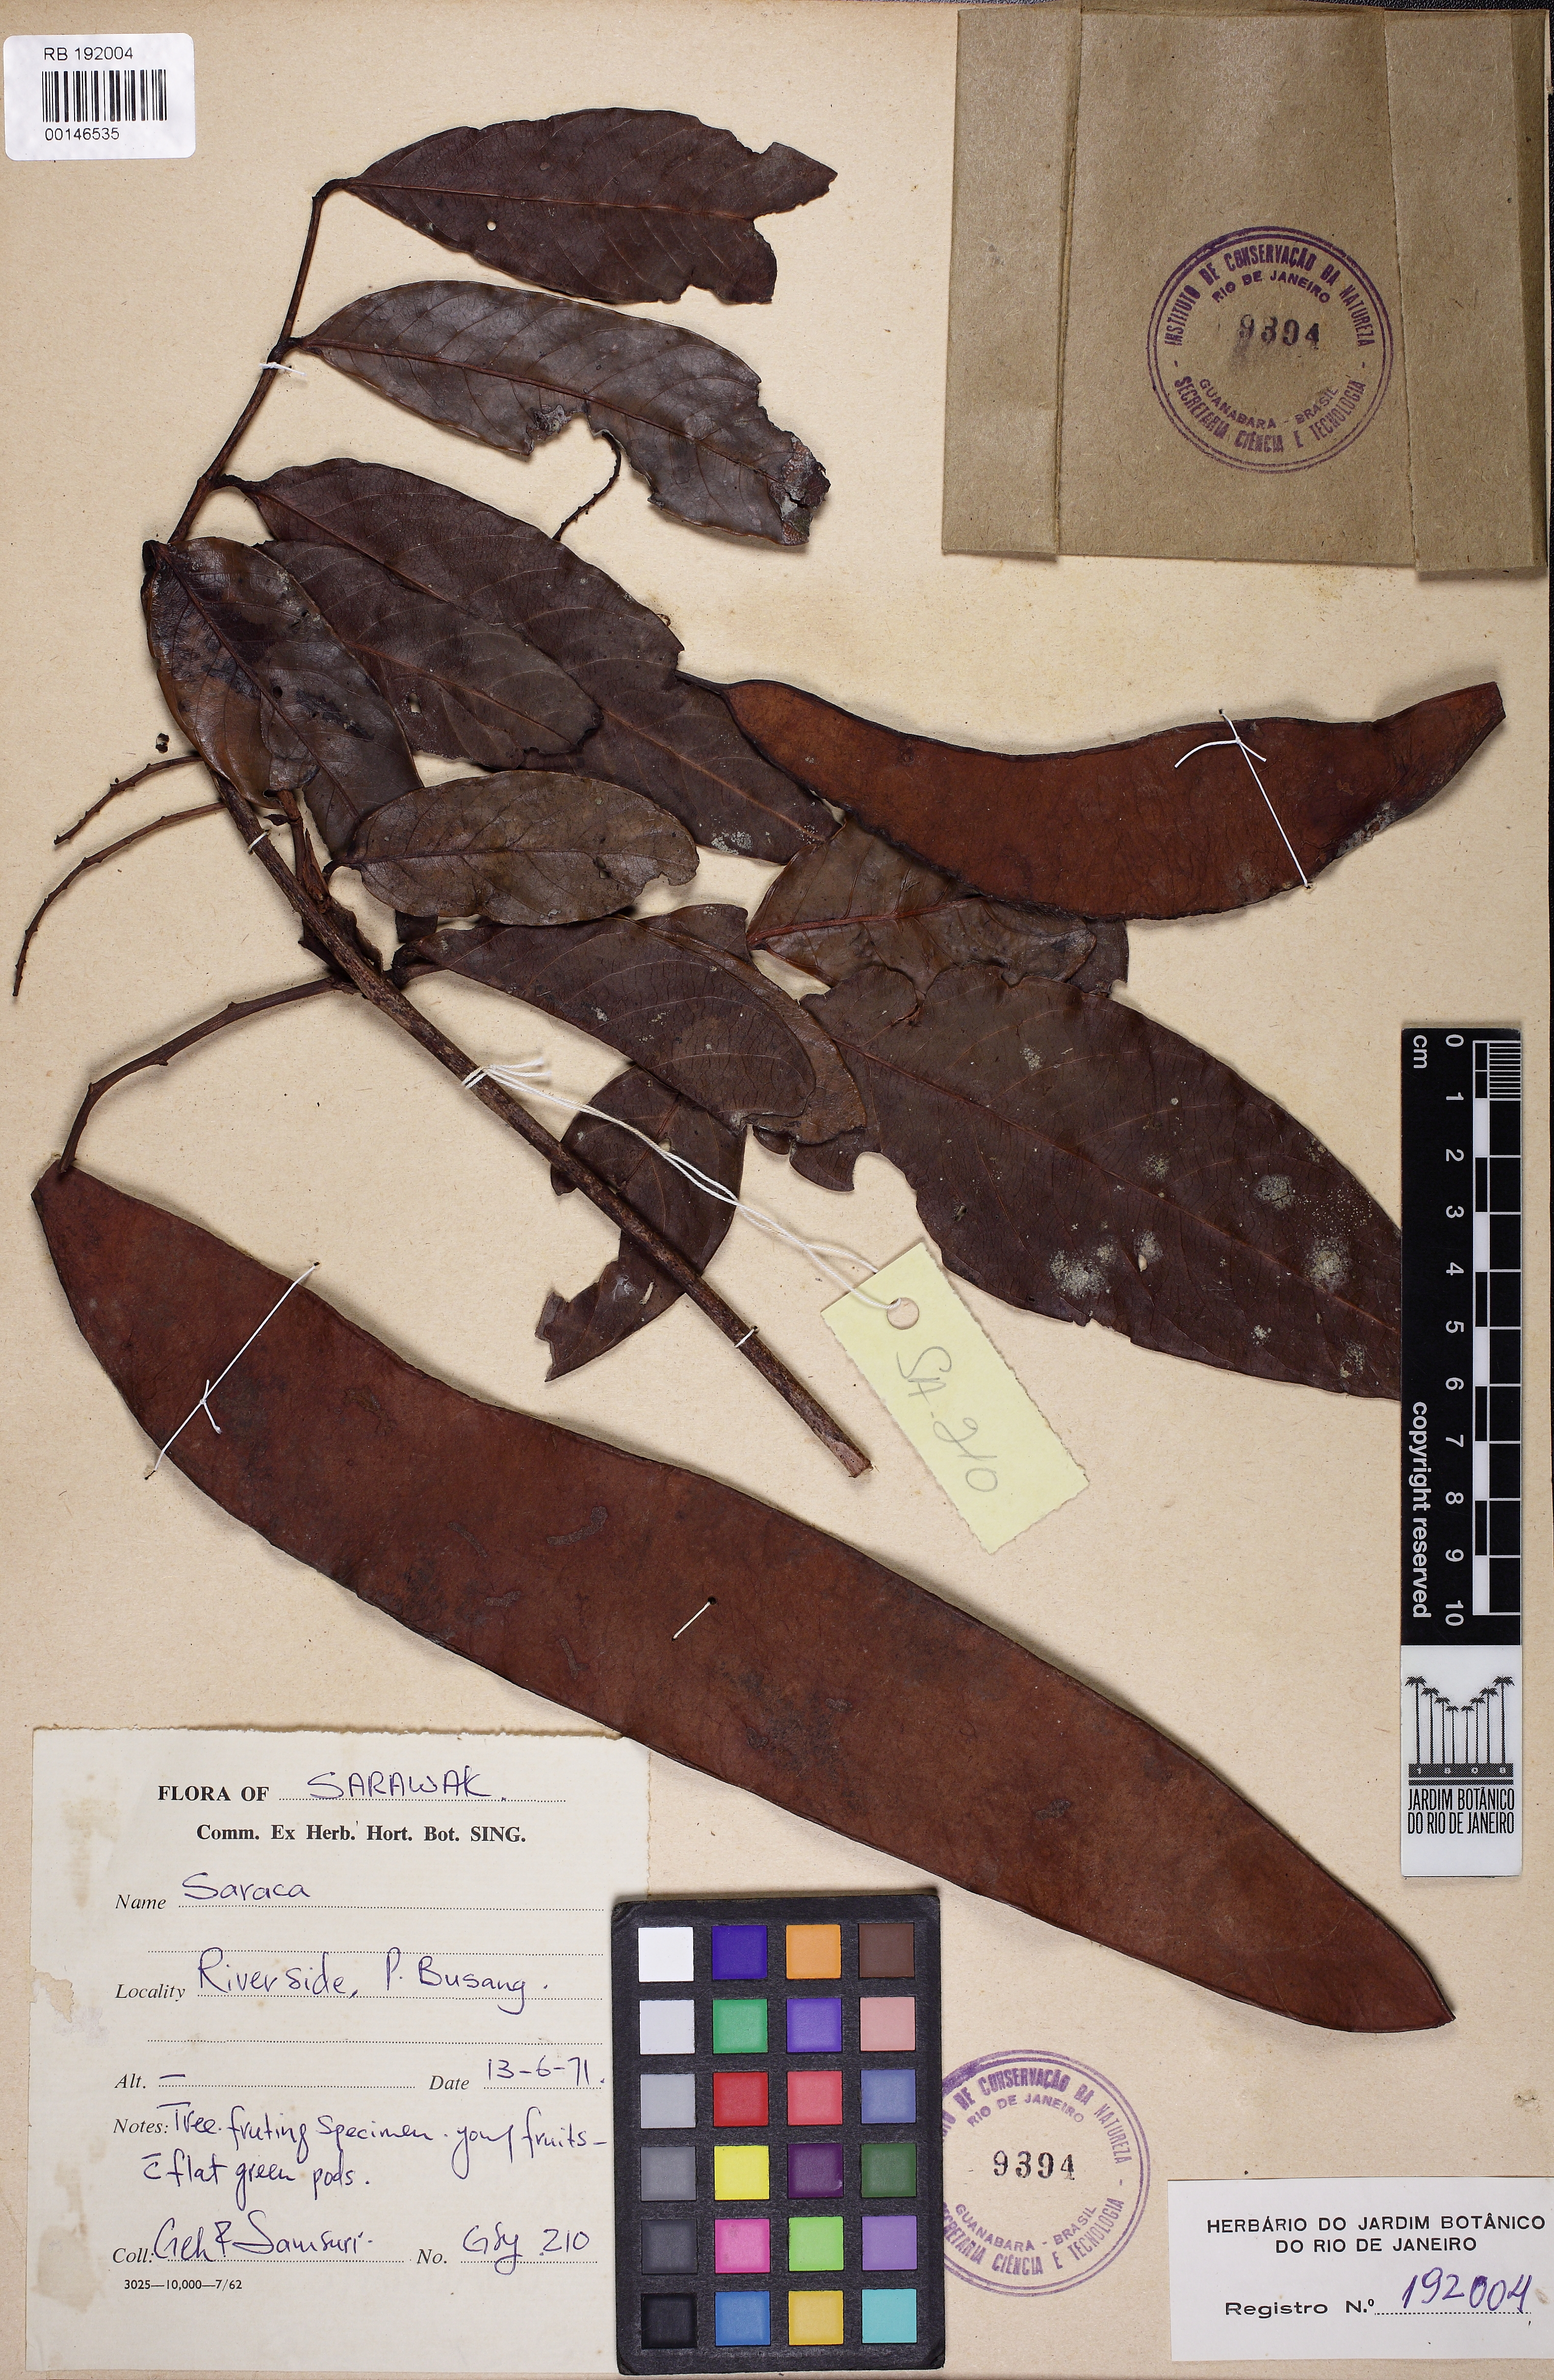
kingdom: Plantae
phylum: Tracheophyta
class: Magnoliopsida
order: Fabales
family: Fabaceae
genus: Saraca
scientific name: Saraca
